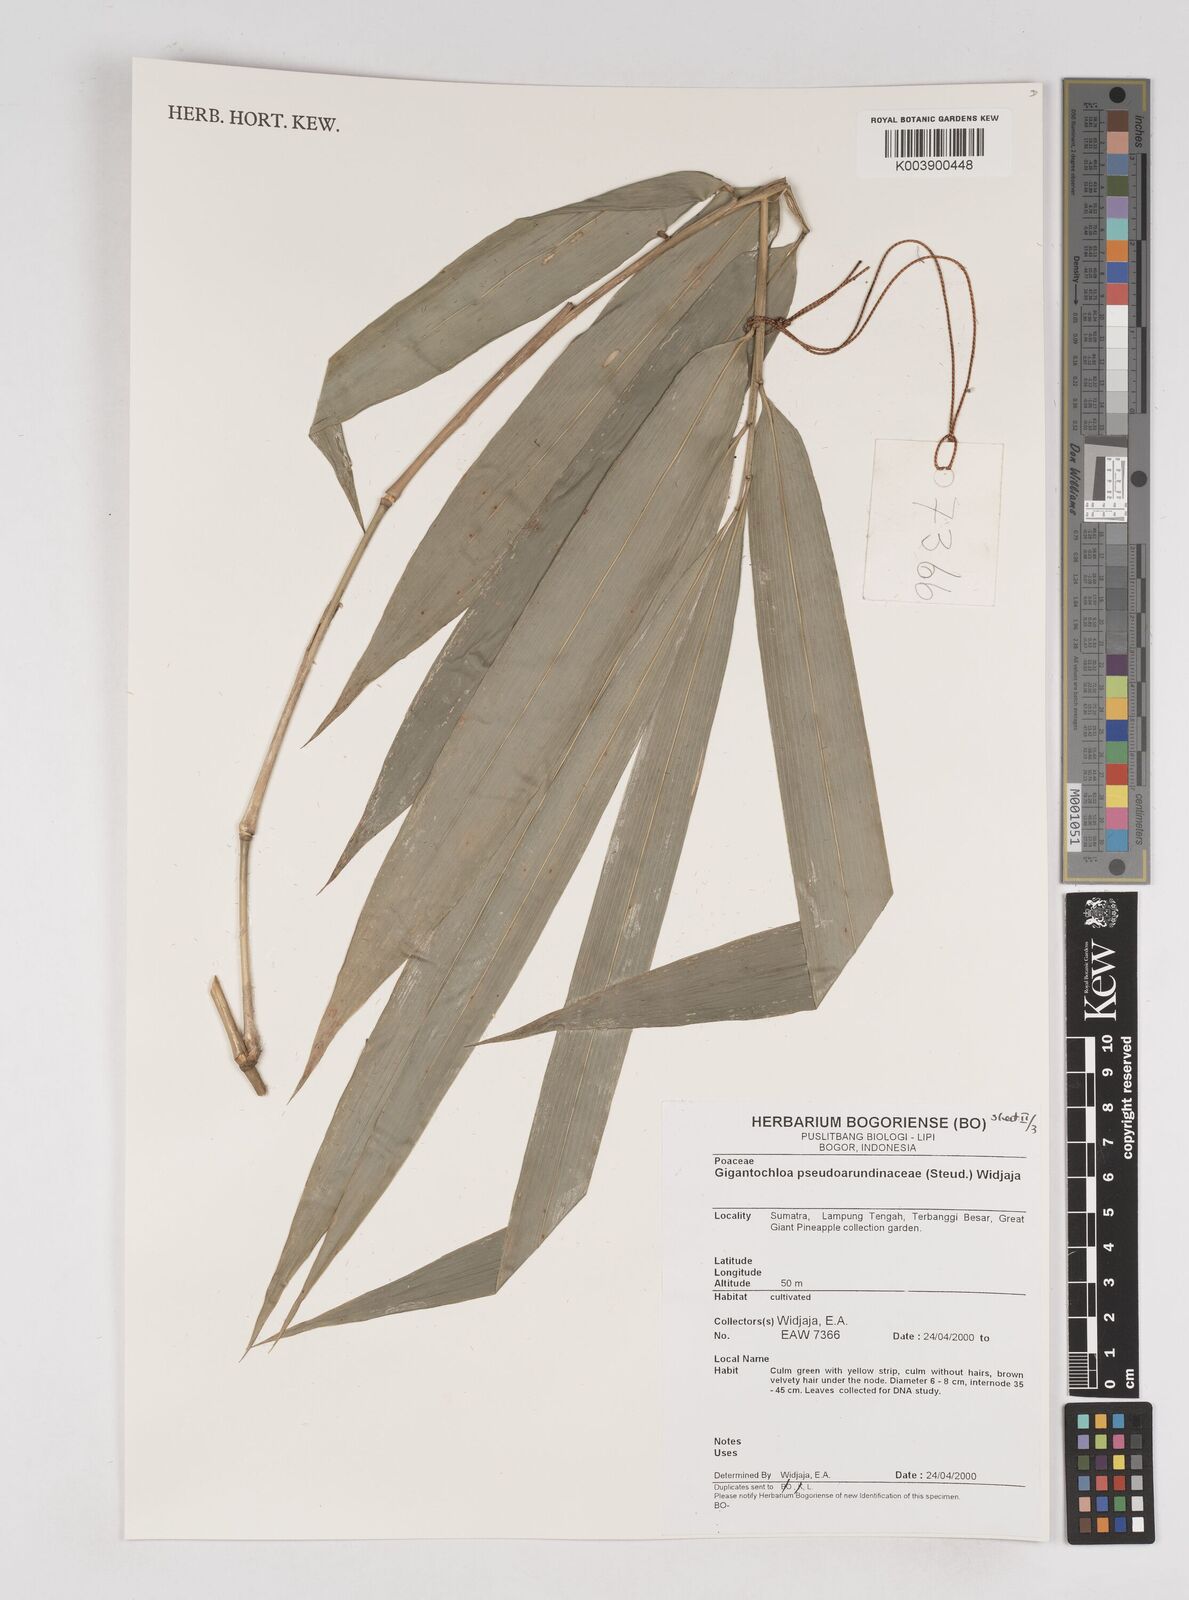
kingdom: Plantae
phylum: Tracheophyta
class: Liliopsida
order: Poales
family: Poaceae
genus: Gigantochloa
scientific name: Gigantochloa verticillata
